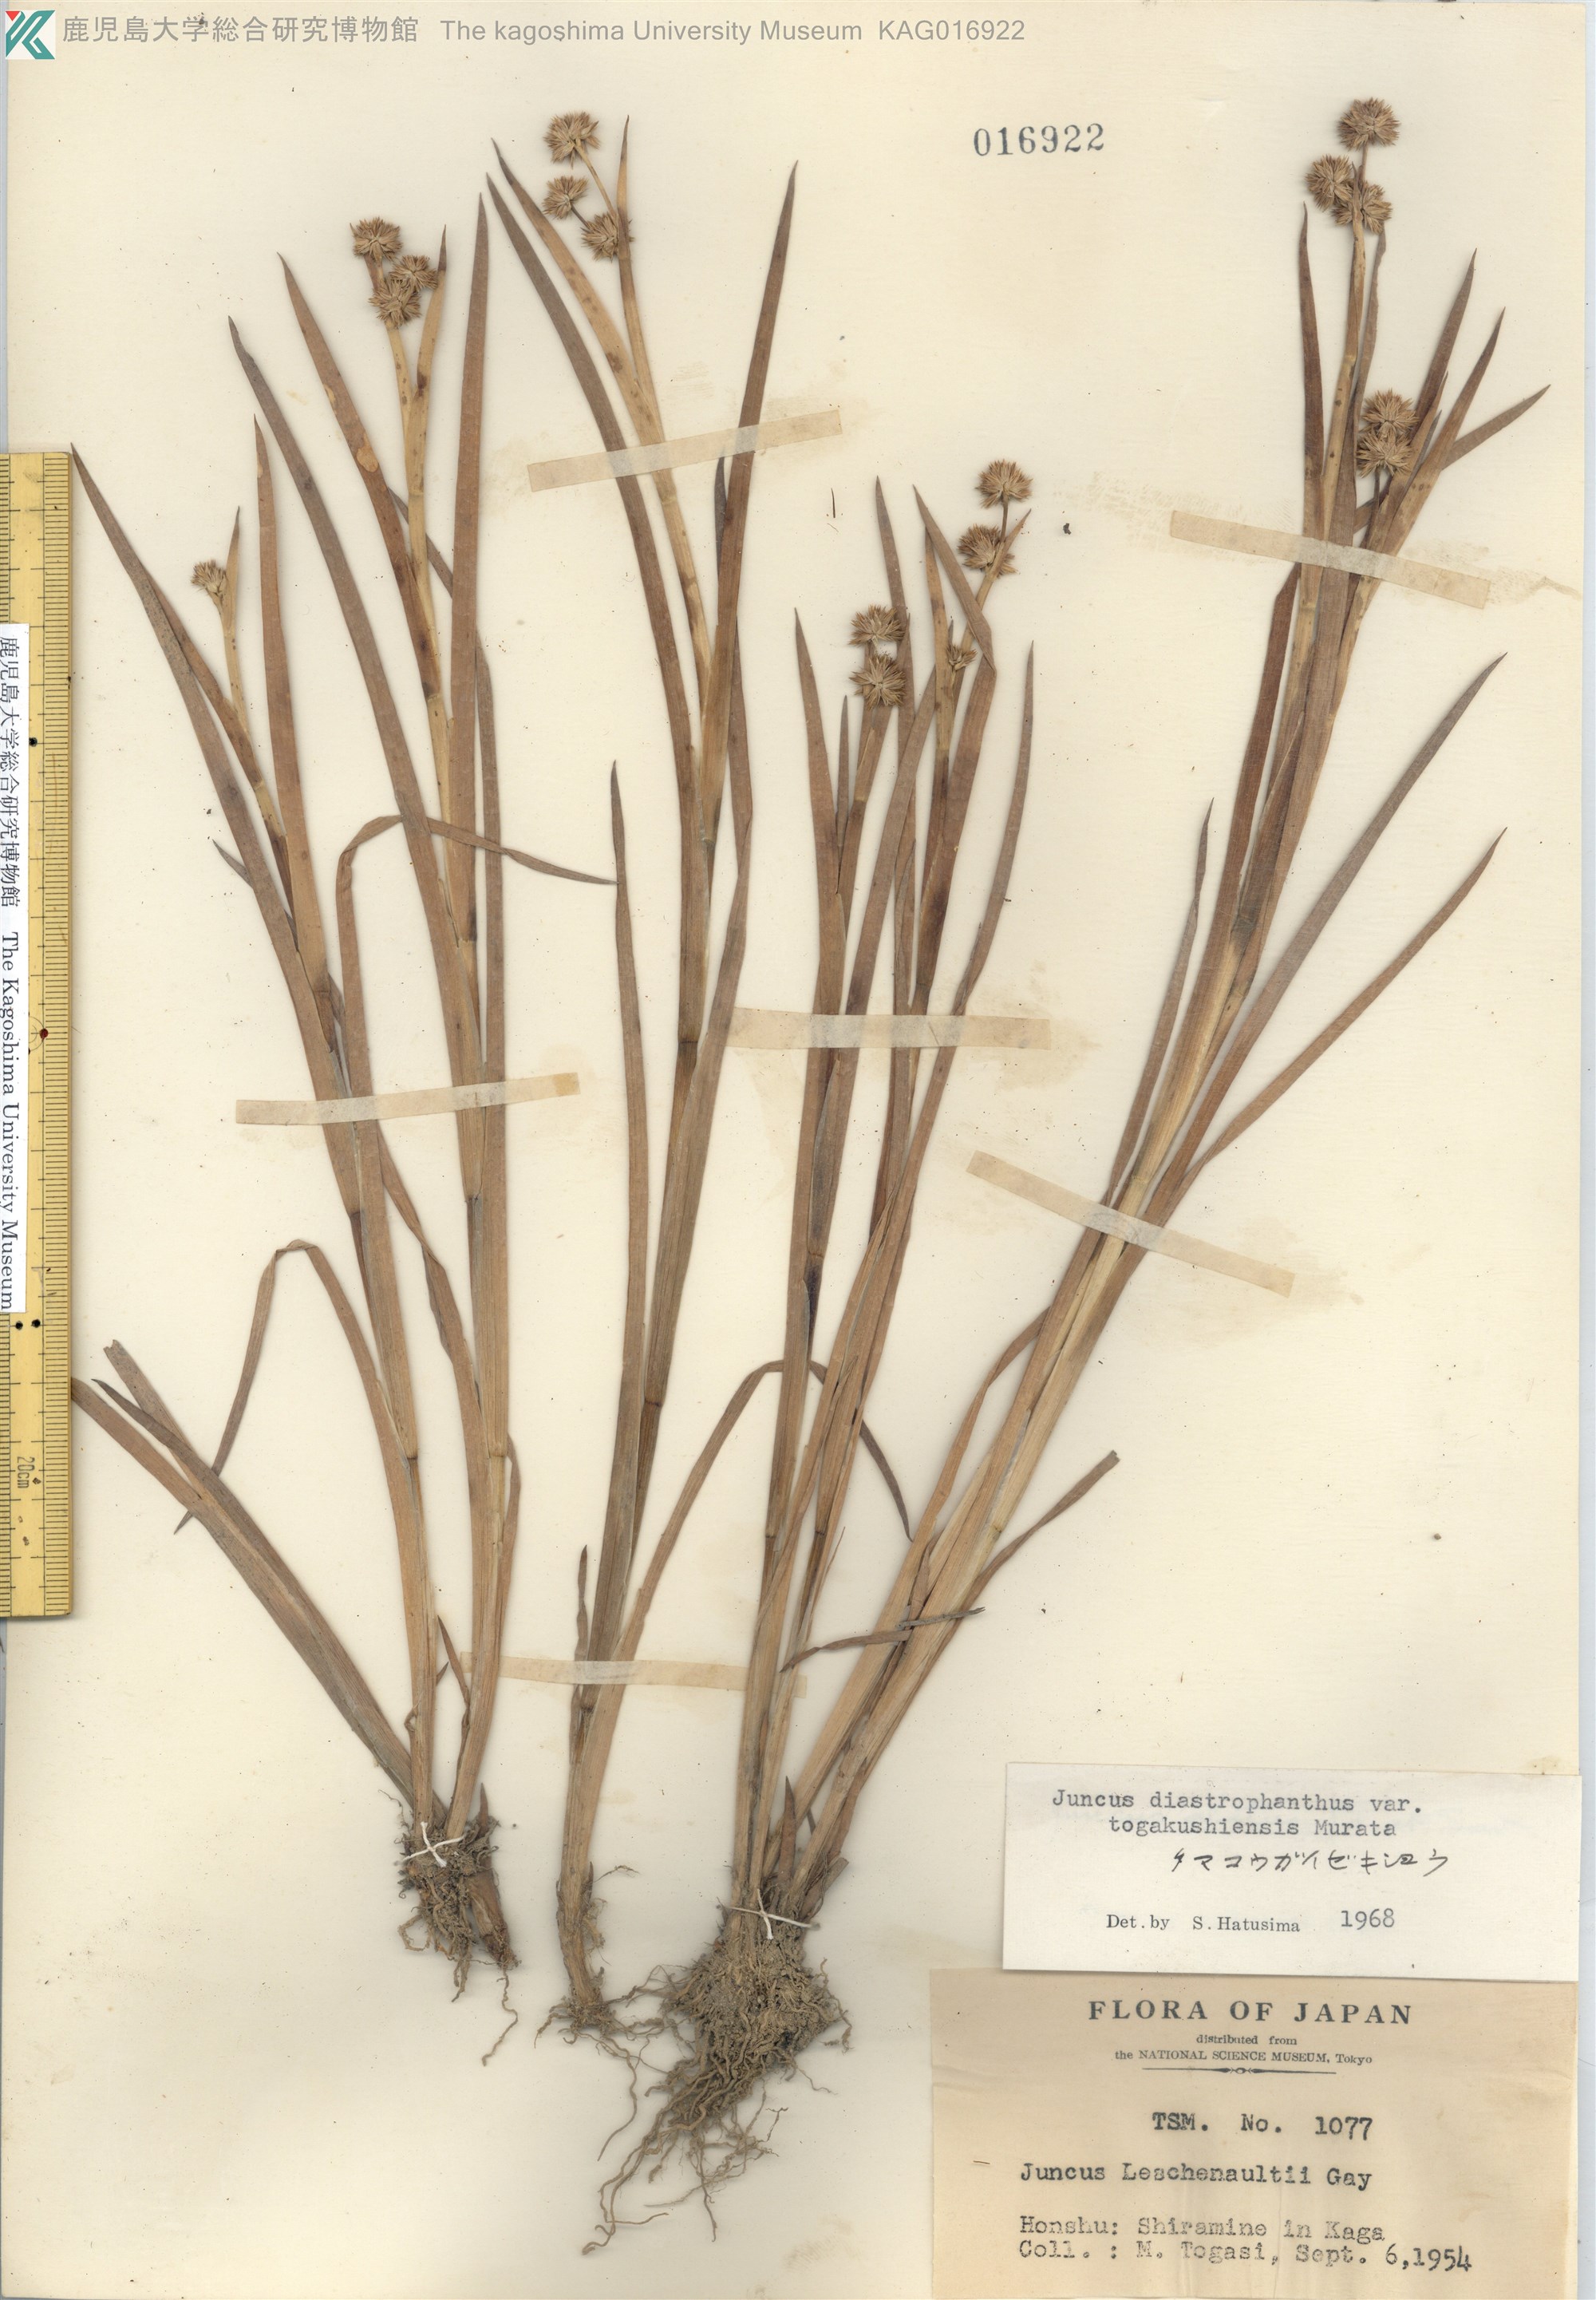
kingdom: Plantae
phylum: Tracheophyta
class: Liliopsida
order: Poales
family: Juncaceae
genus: Juncus
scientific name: Juncus diastrophanthus
